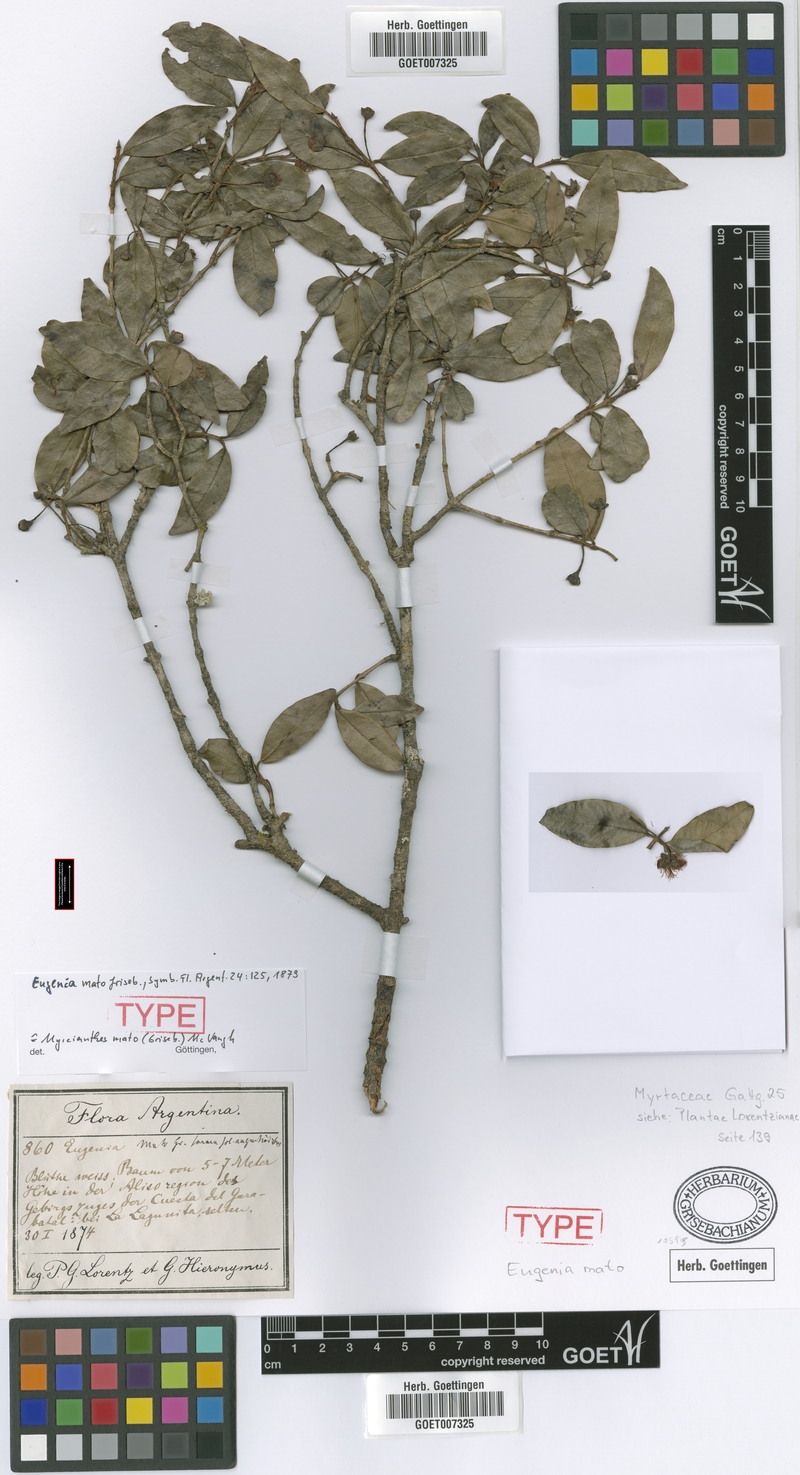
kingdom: Plantae
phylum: Tracheophyta
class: Magnoliopsida
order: Myrtales
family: Myrtaceae
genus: Myrcianthes
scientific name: Myrcianthes mato
